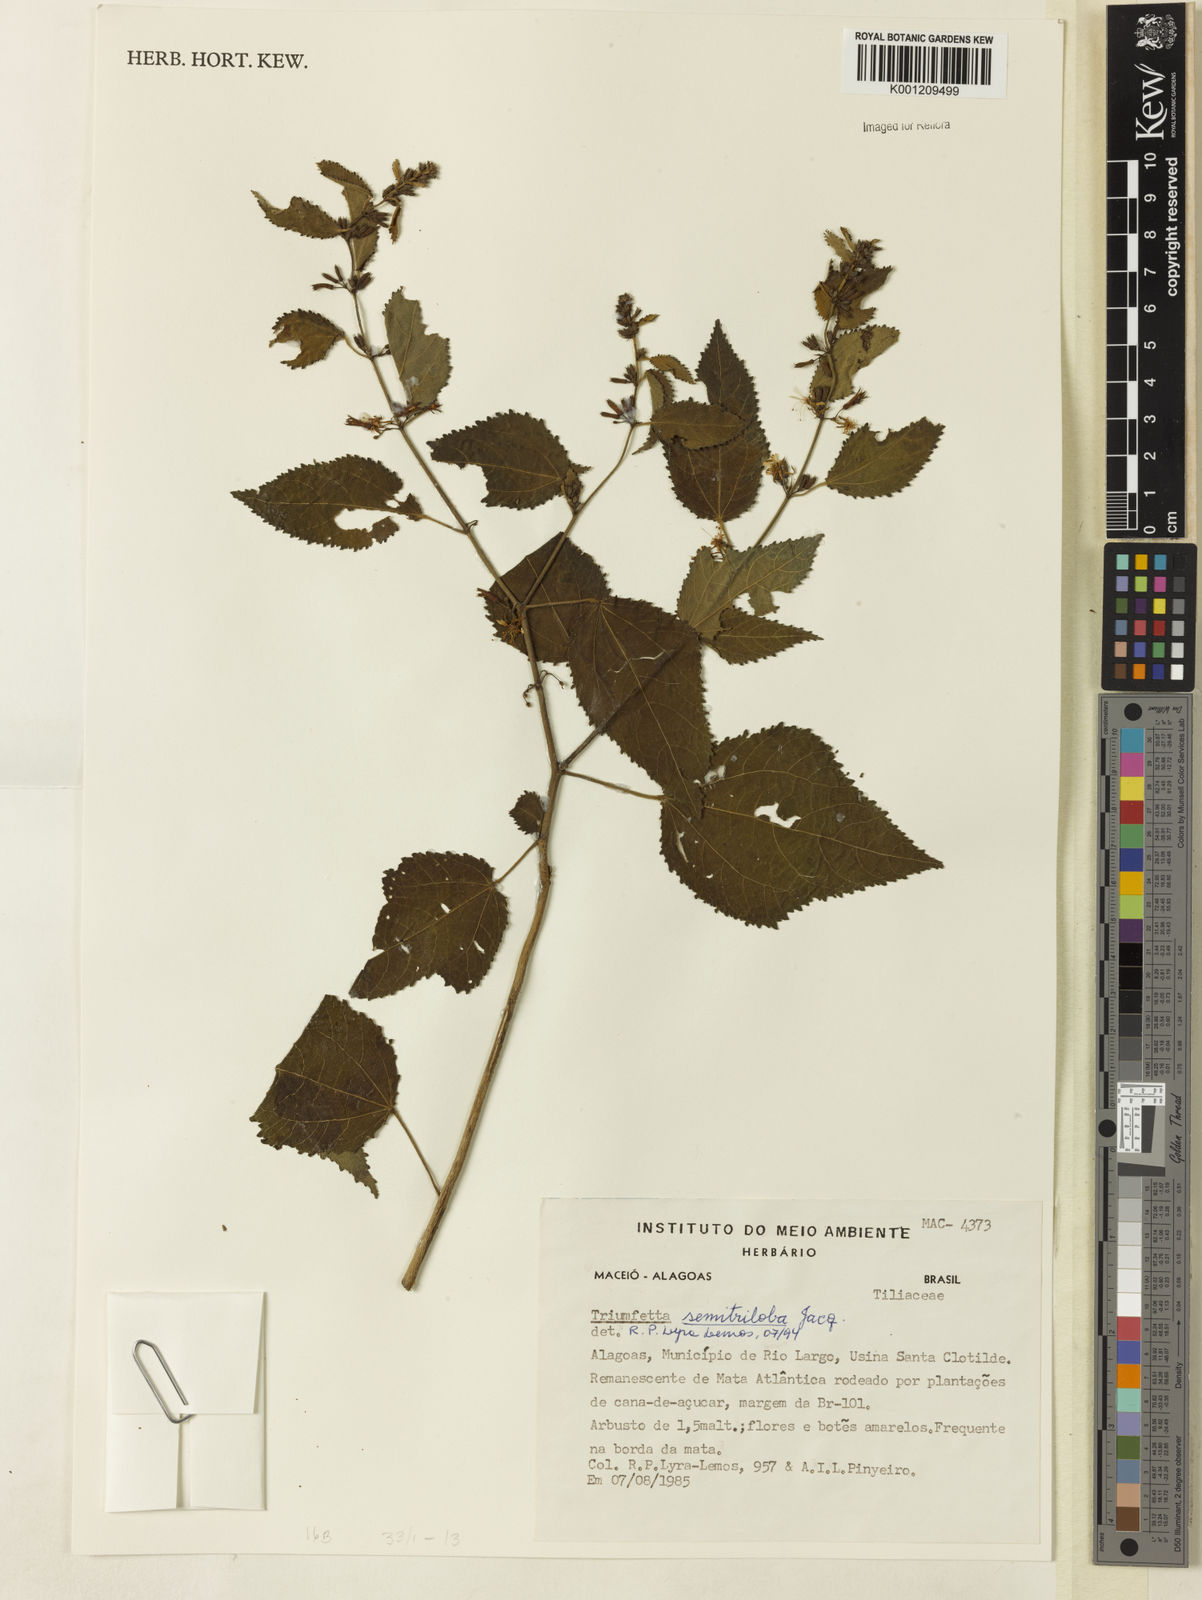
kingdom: Plantae
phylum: Tracheophyta
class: Magnoliopsida
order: Malvales
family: Malvaceae
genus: Triumfetta
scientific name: Triumfetta semitriloba
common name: Sacramento burbark
